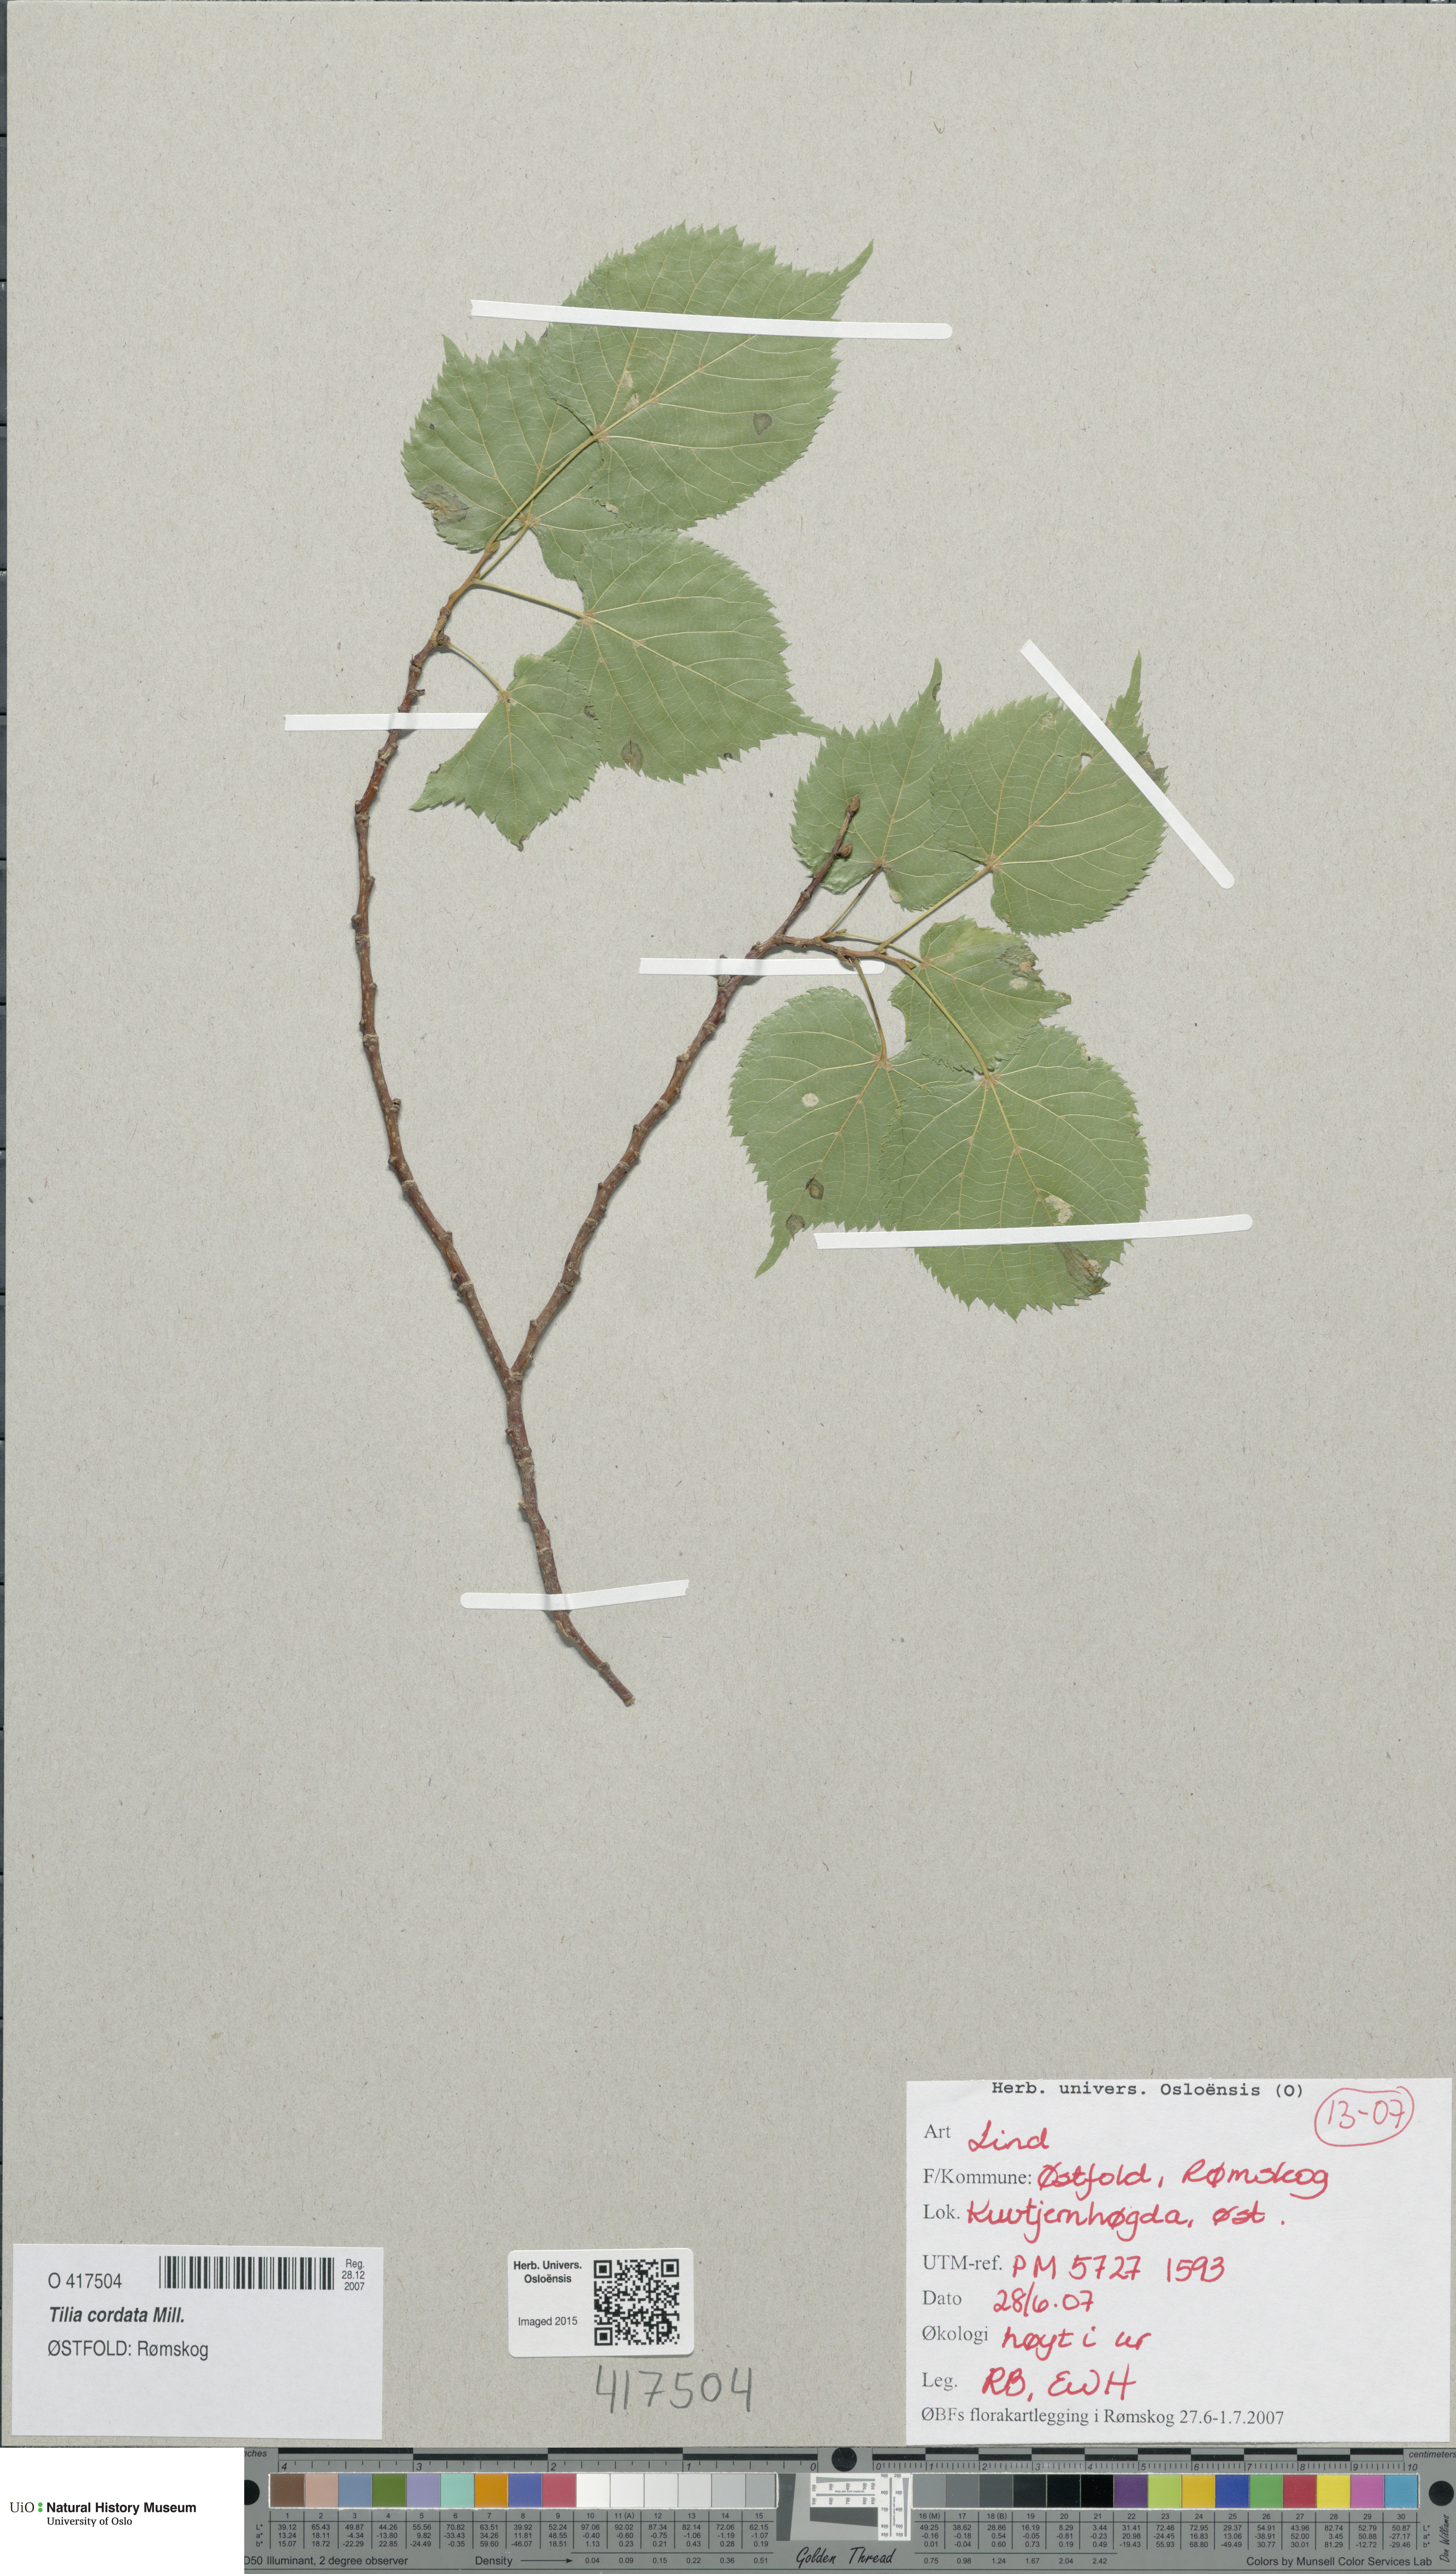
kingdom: Plantae
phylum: Tracheophyta
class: Magnoliopsida
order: Malvales
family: Malvaceae
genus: Tilia
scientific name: Tilia cordata
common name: Small-leaved lime
